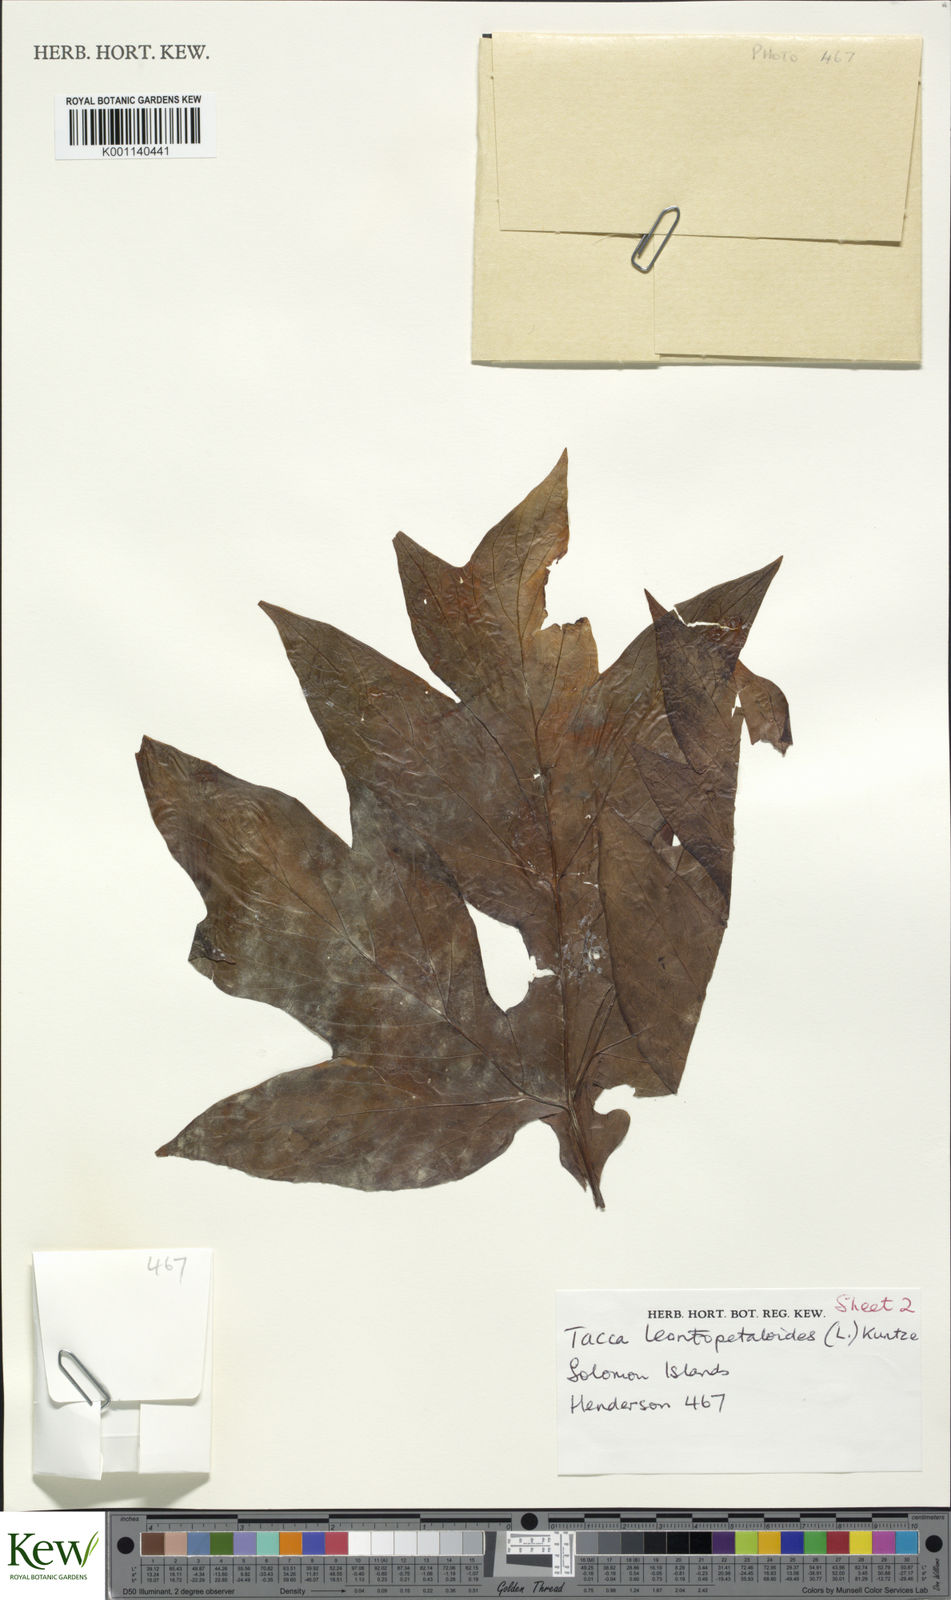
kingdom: Plantae
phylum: Tracheophyta
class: Liliopsida
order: Dioscoreales
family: Dioscoreaceae
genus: Tacca
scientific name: Tacca leontopetaloides
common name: Arrowroot
